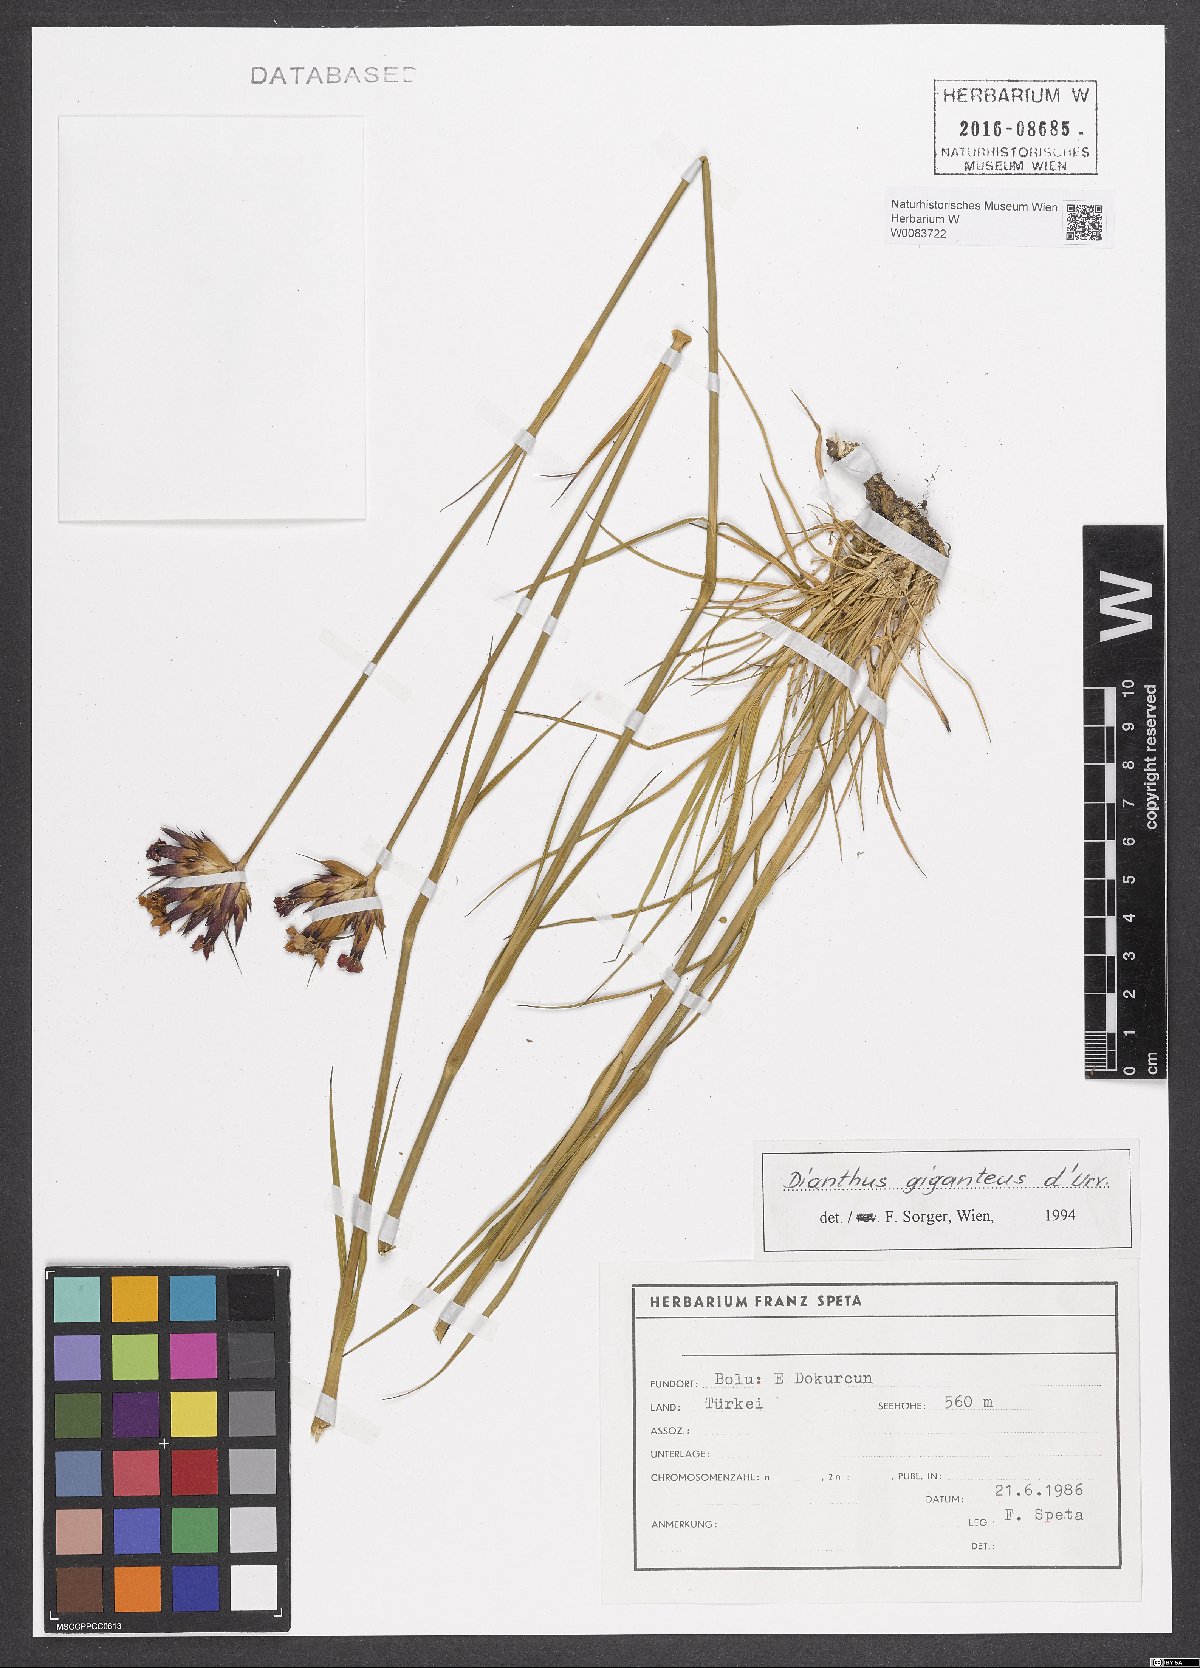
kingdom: Plantae
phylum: Tracheophyta
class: Magnoliopsida
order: Caryophyllales
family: Caryophyllaceae
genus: Dianthus
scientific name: Dianthus giganteus
